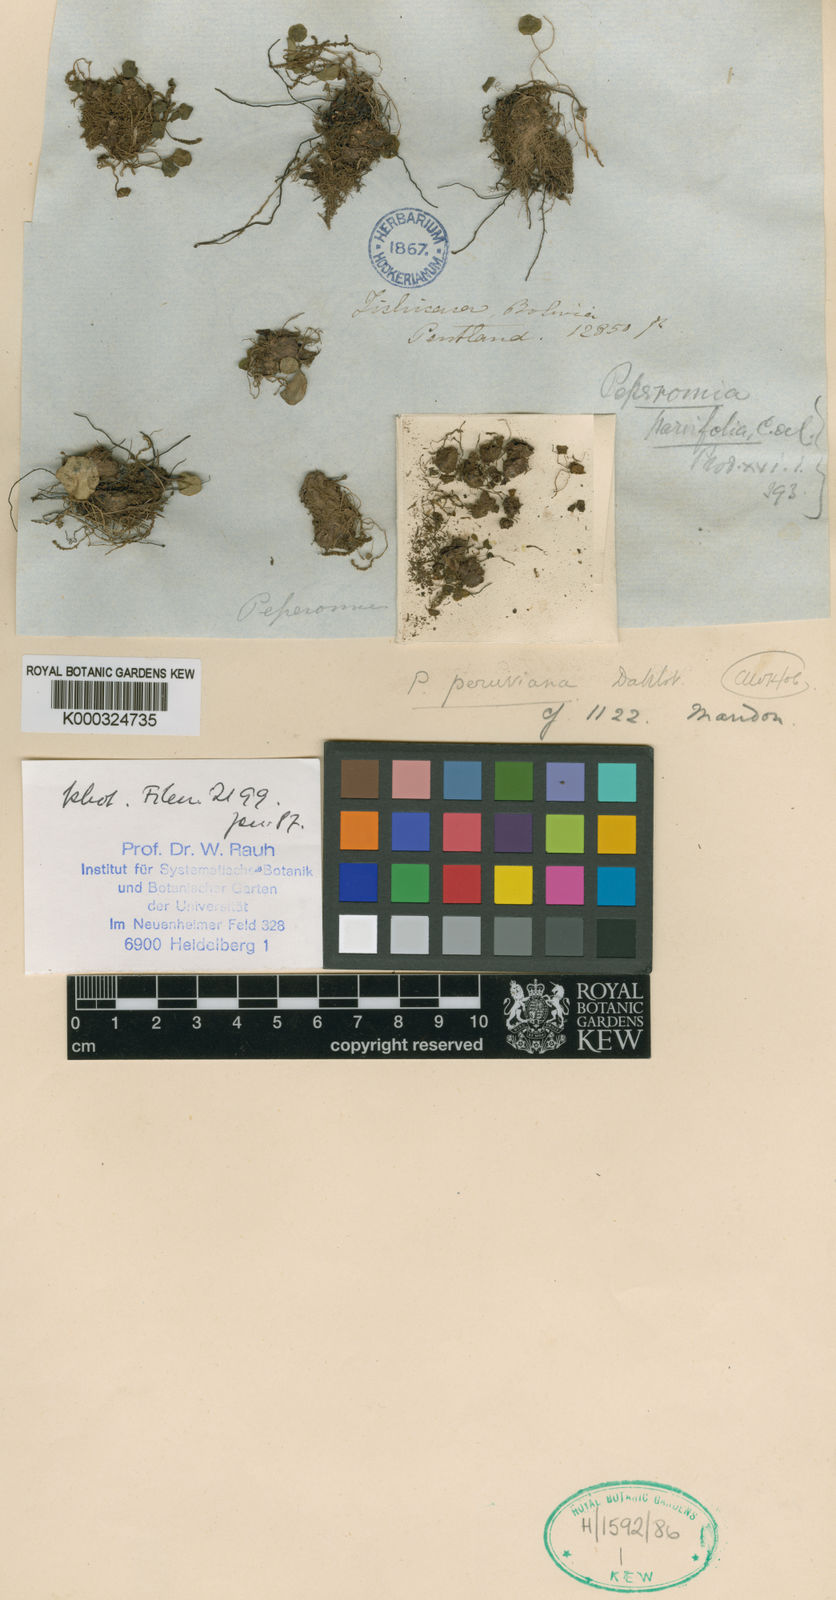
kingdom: Plantae
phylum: Tracheophyta
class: Magnoliopsida
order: Piperales
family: Piperaceae
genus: Peperomia
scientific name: Peperomia umbilicata
